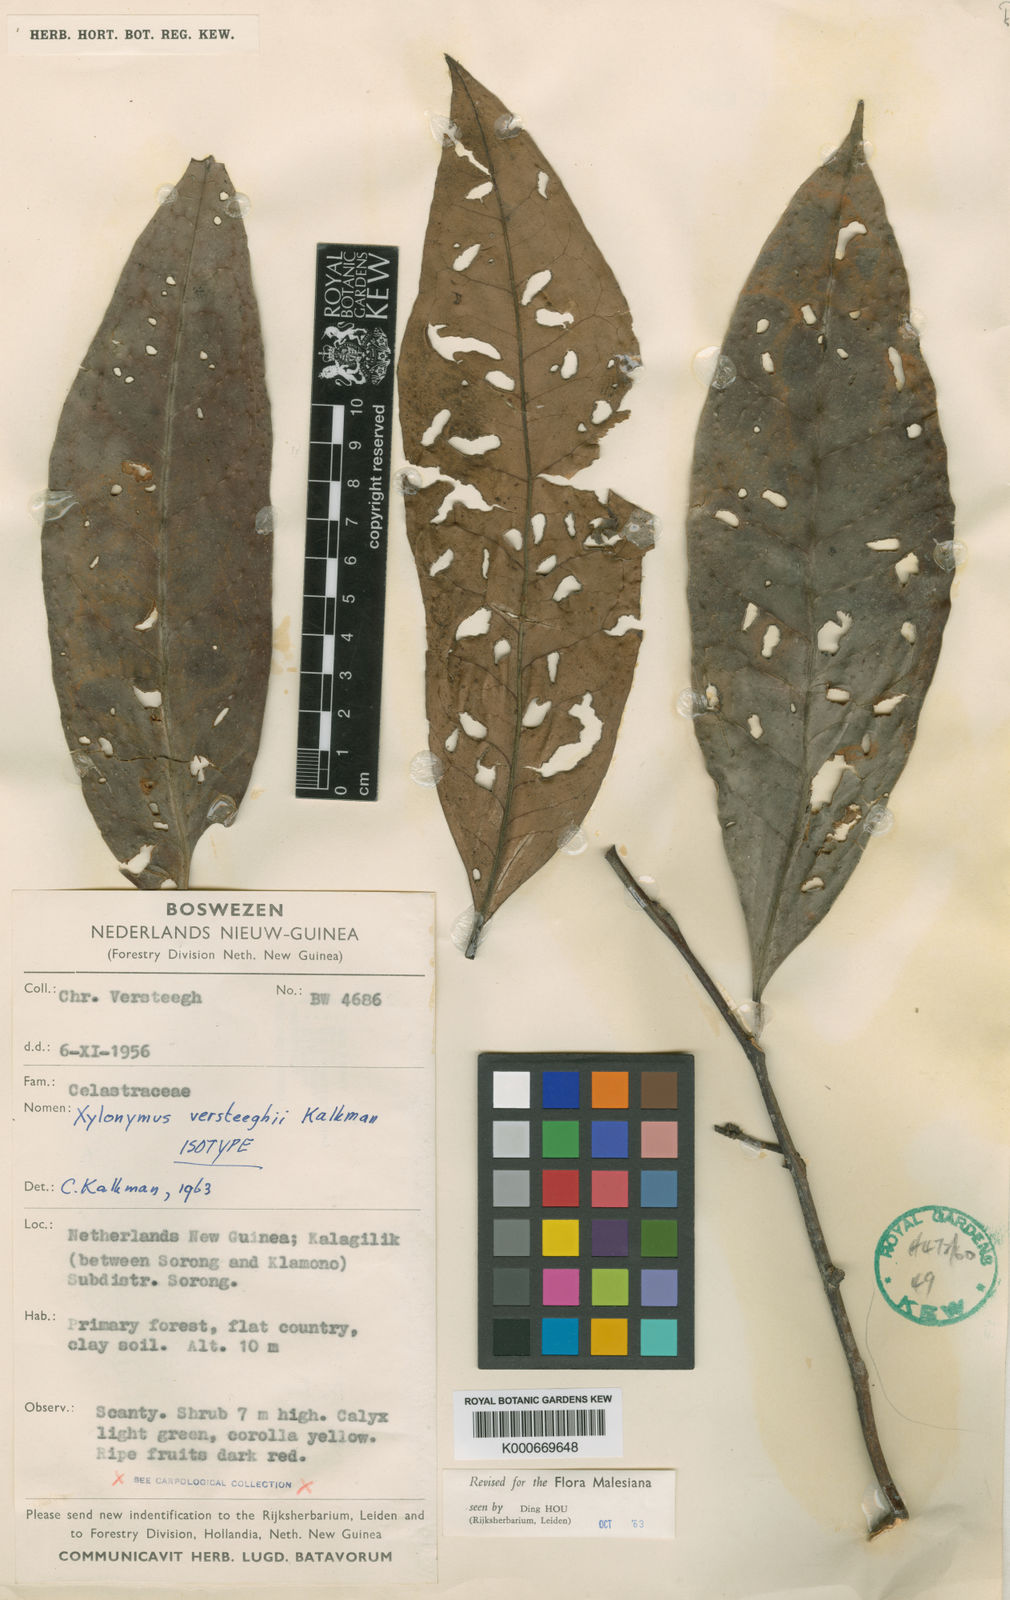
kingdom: Plantae
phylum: Tracheophyta
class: Magnoliopsida
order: Celastrales
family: Celastraceae
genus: Xylonymus
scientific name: Xylonymus
